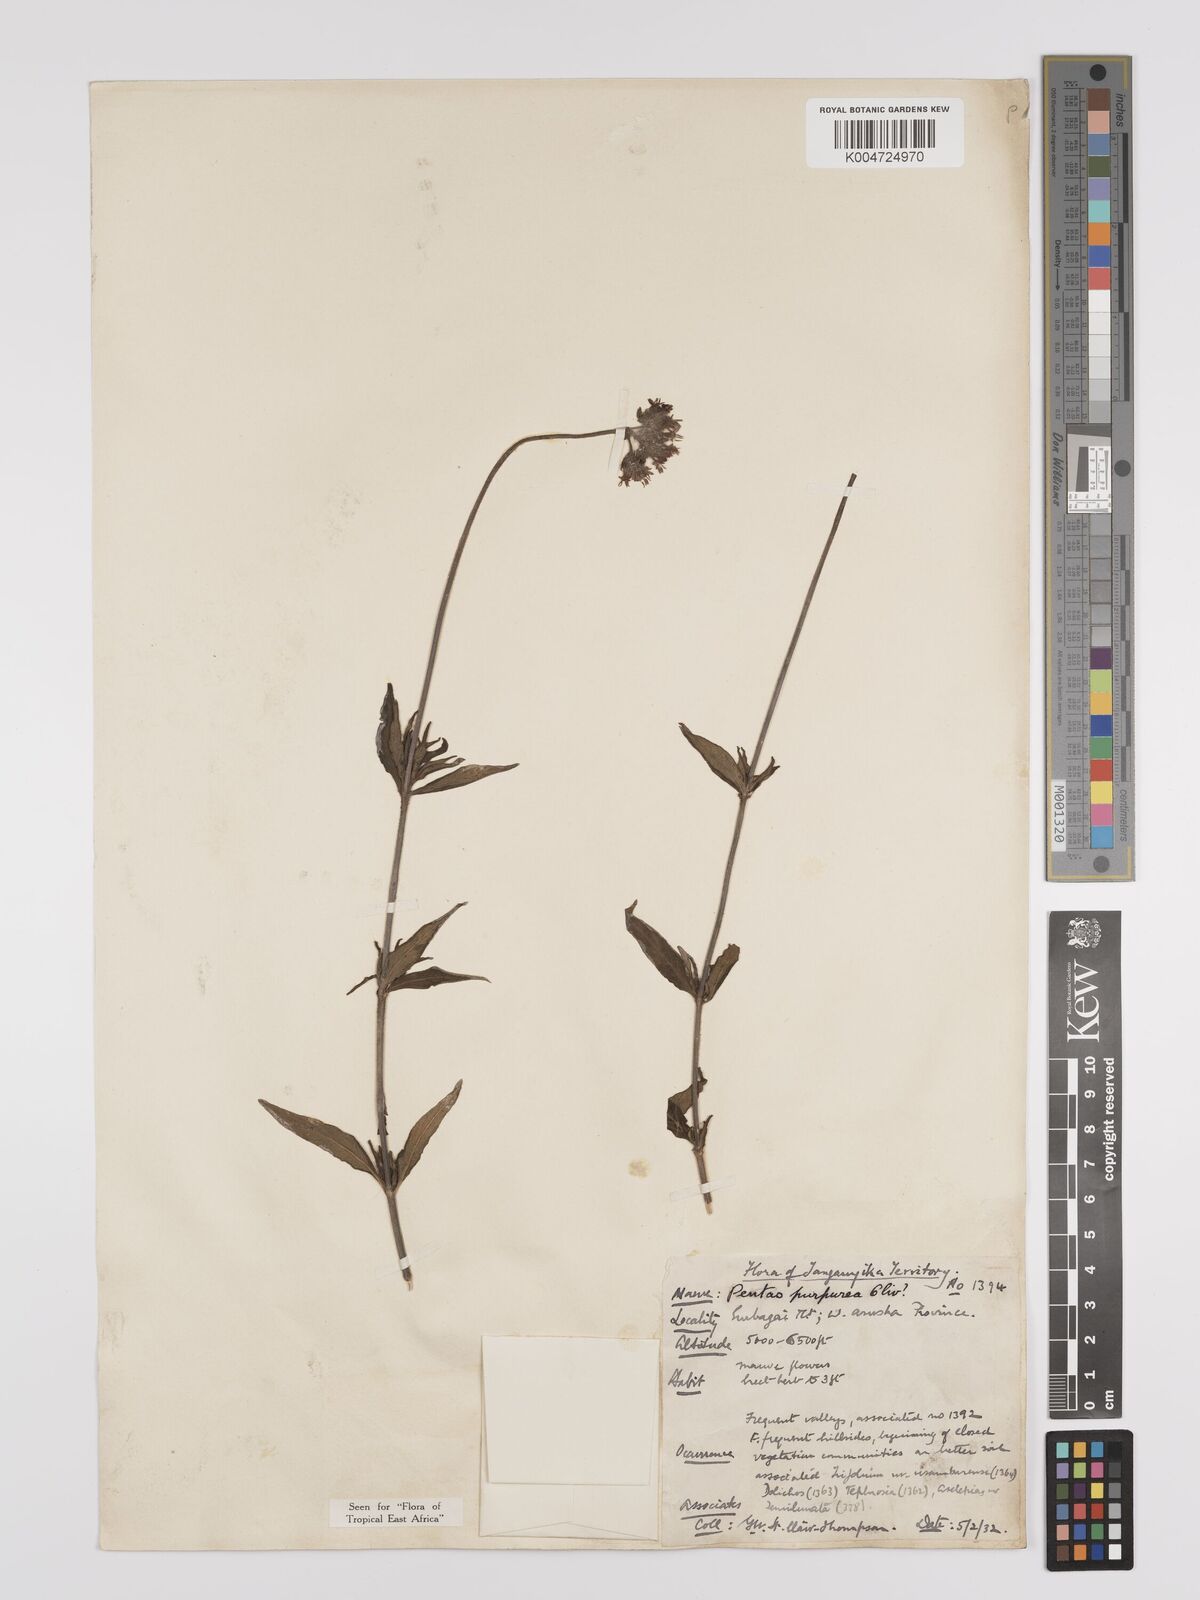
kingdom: Plantae
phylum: Tracheophyta
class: Magnoliopsida
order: Gentianales
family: Rubiaceae
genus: Pentas
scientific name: Pentas zanzibarica
